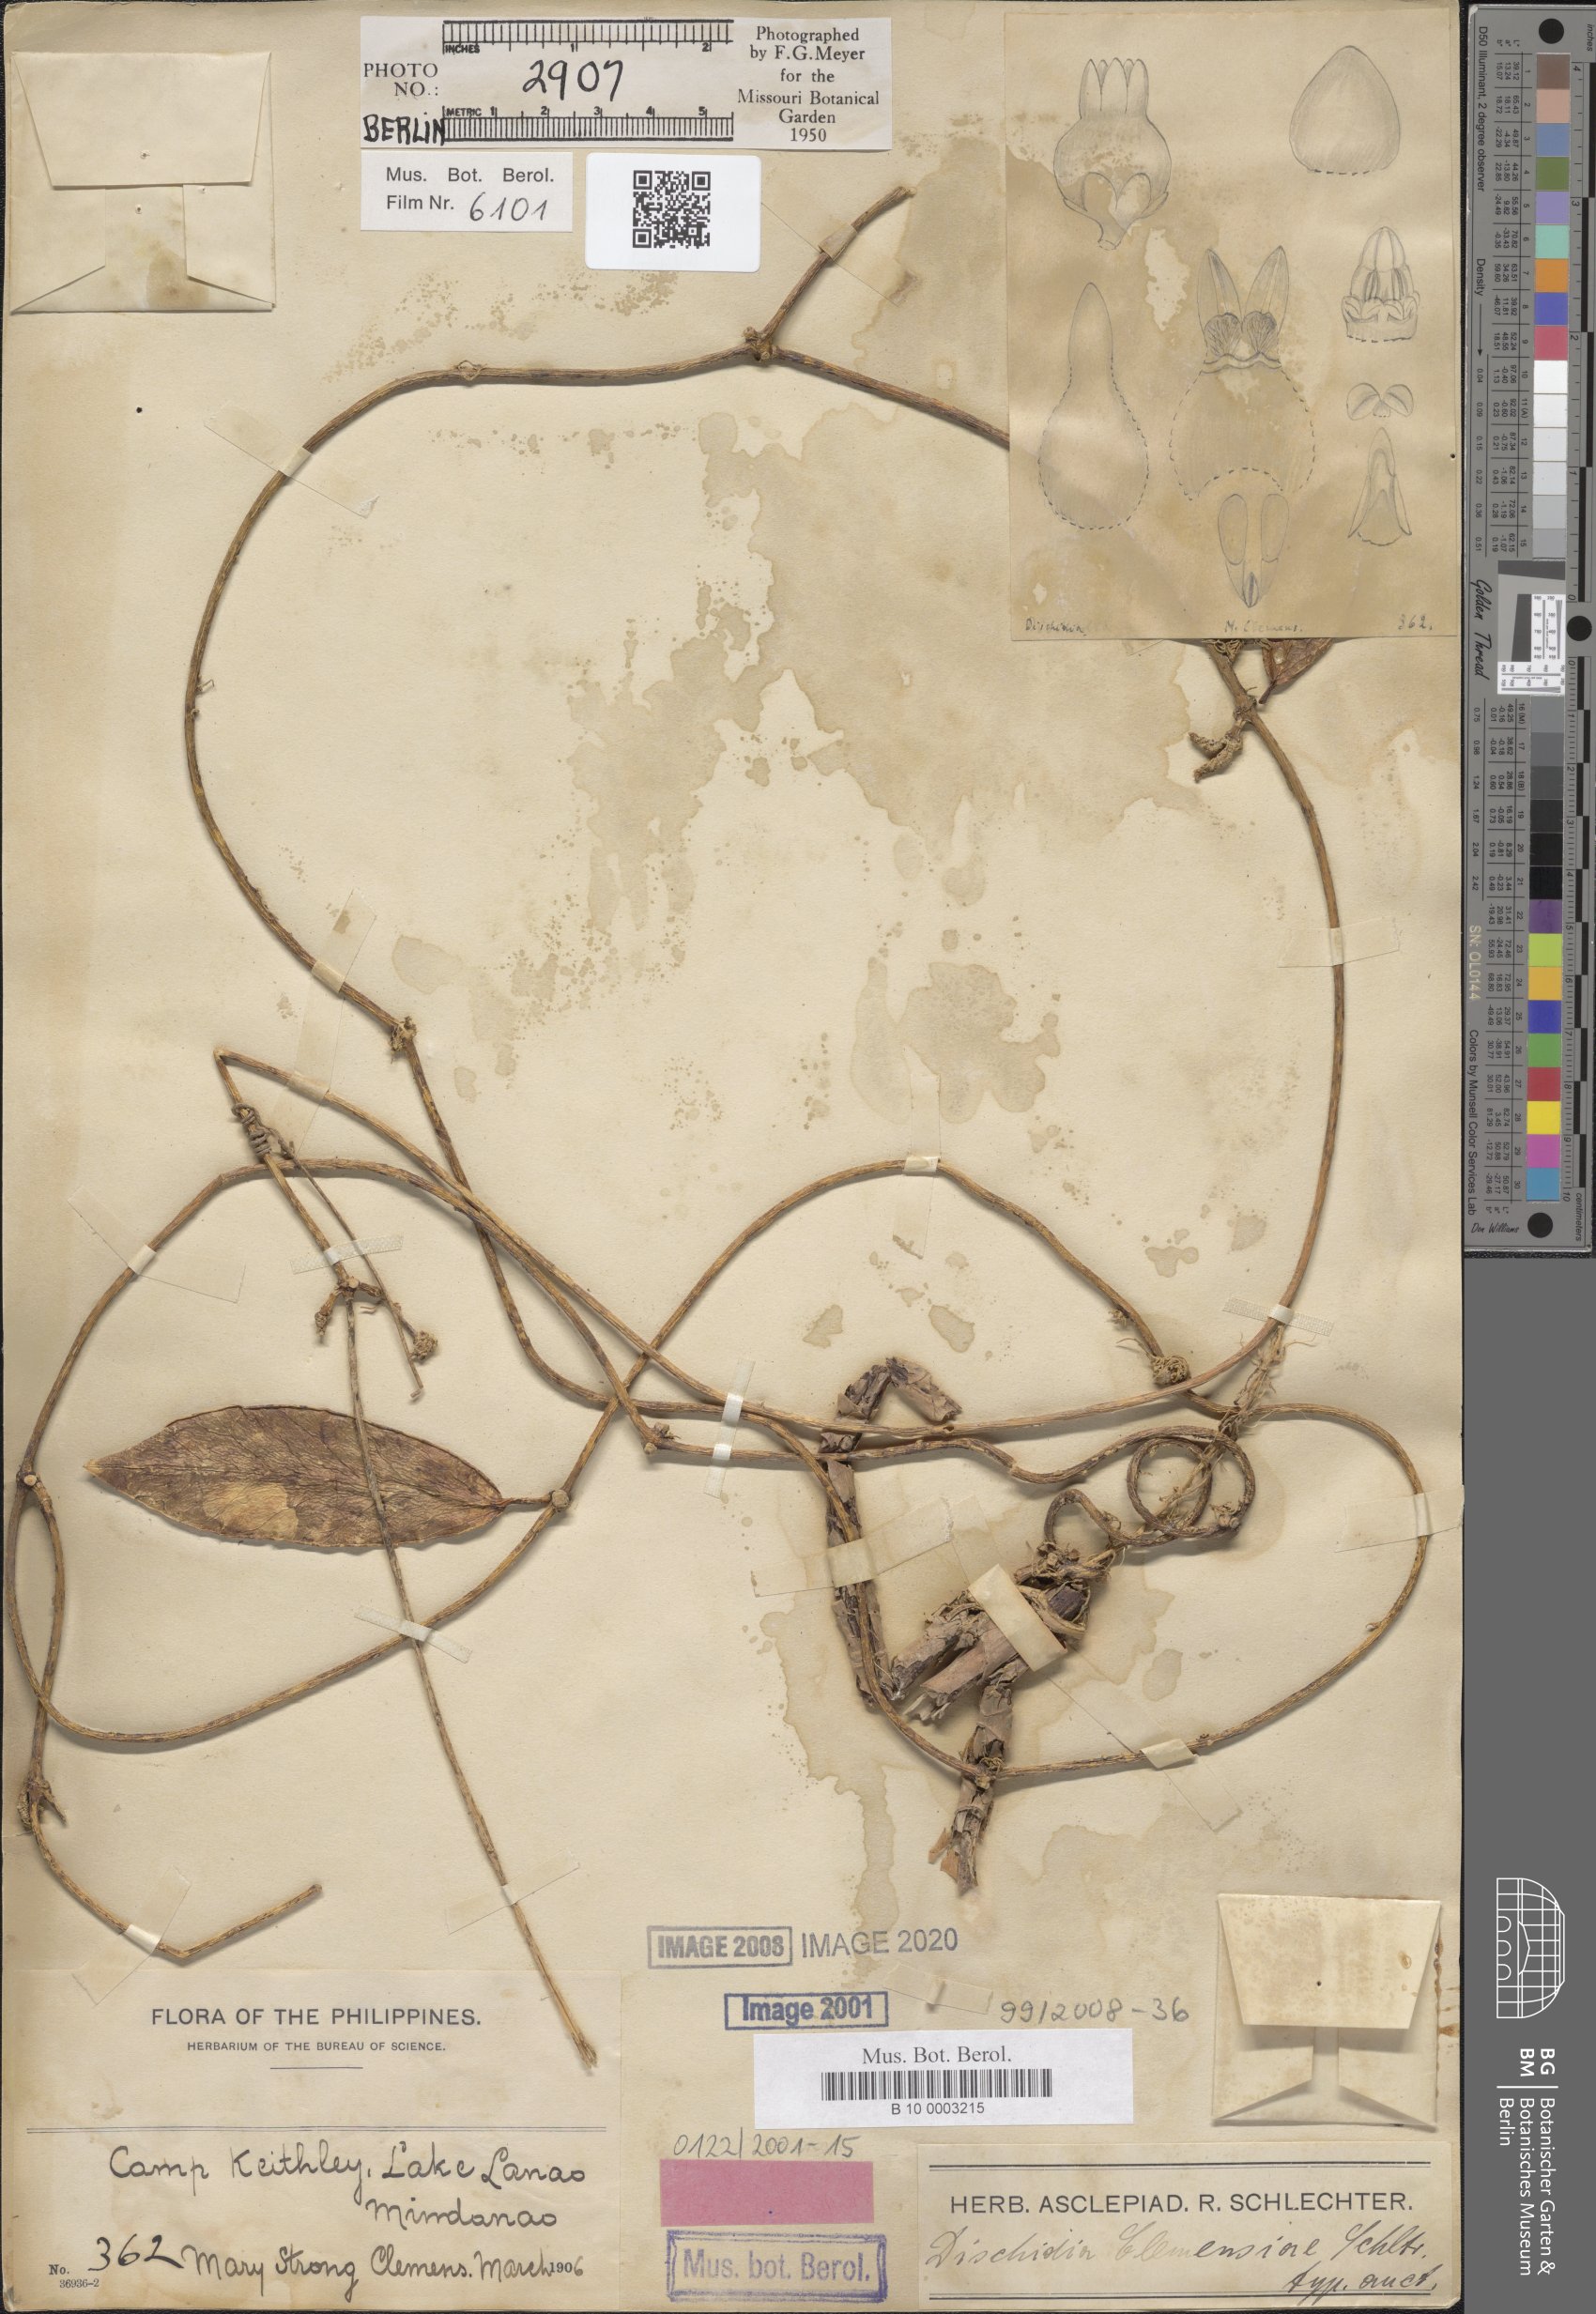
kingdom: Plantae
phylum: Tracheophyta
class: Magnoliopsida
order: Gentianales
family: Apocynaceae
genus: Dischidia
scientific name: Dischidia clemensiae
